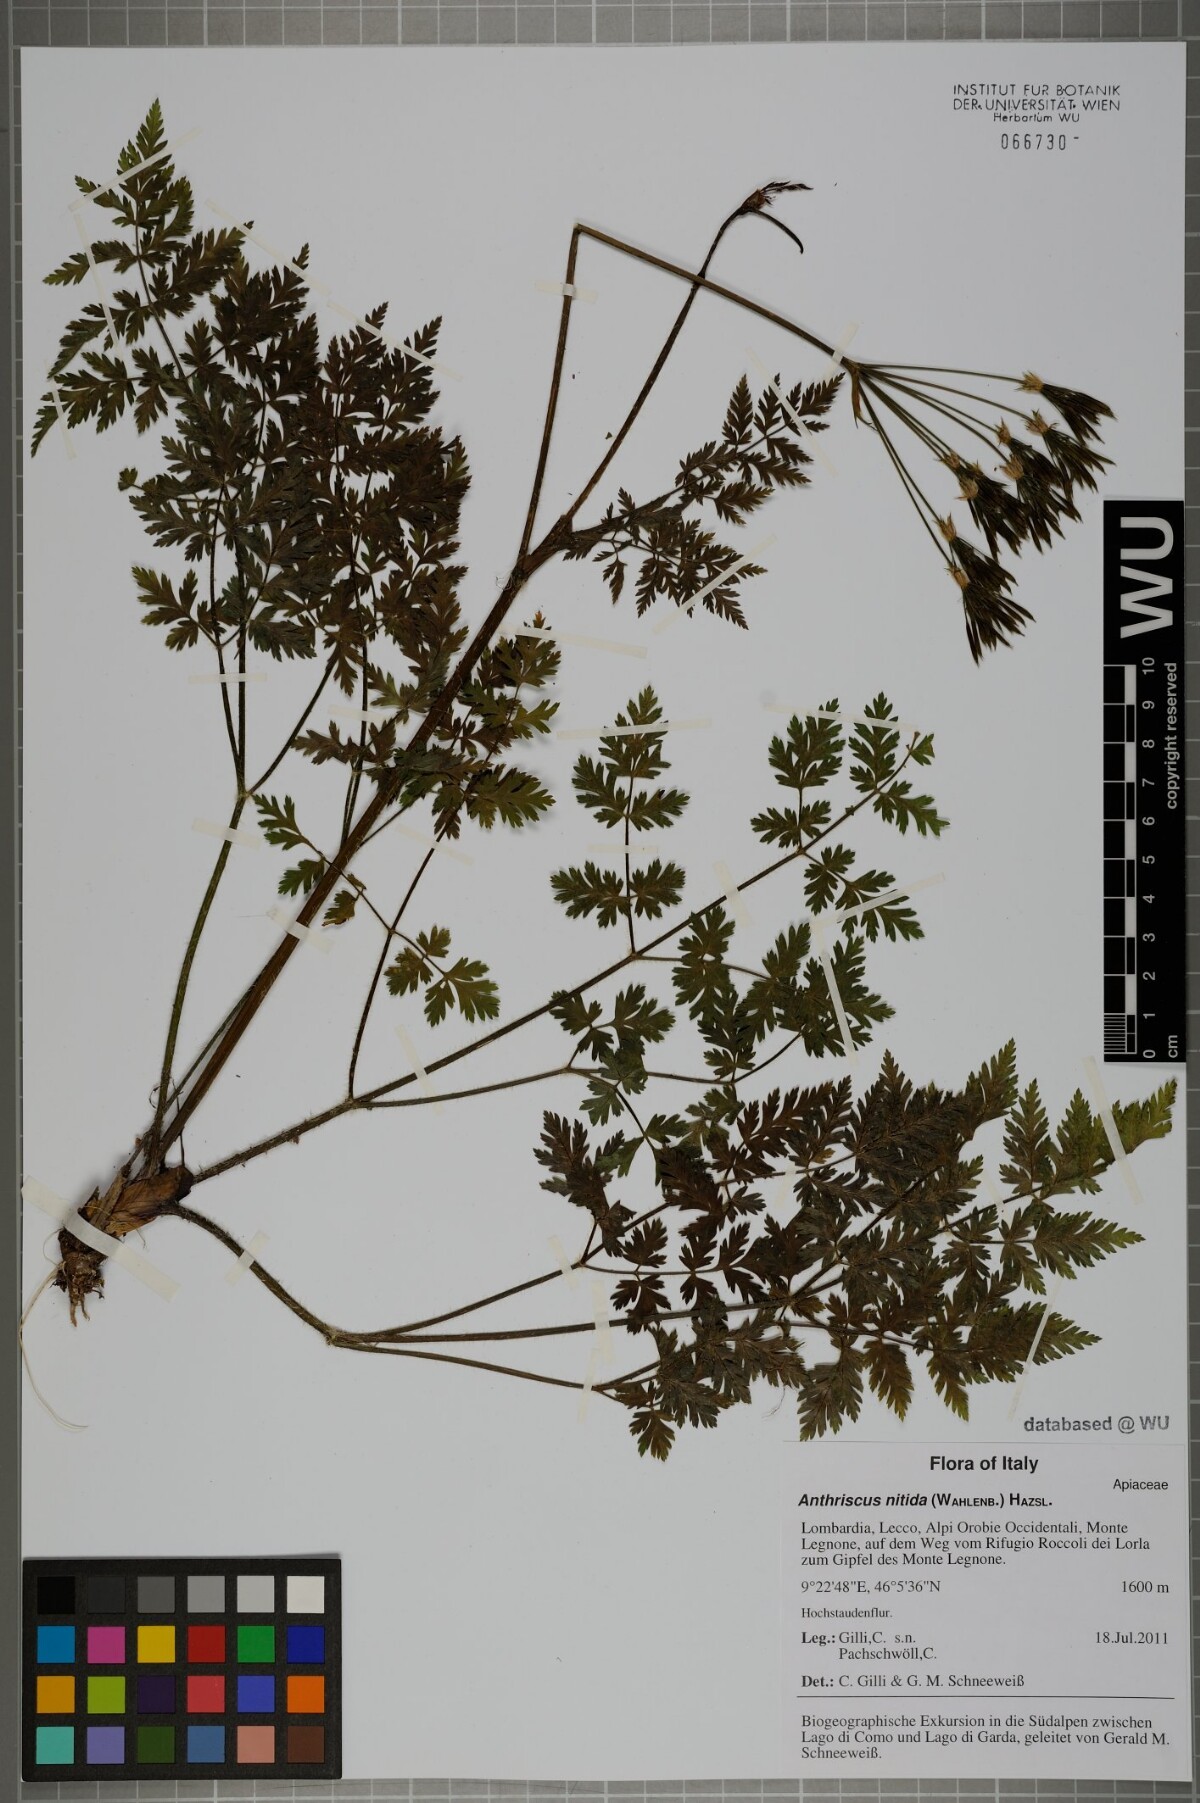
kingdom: Plantae
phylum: Tracheophyta
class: Magnoliopsida
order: Apiales
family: Apiaceae
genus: Chaerophyllum
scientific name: Chaerophyllum villarsii
